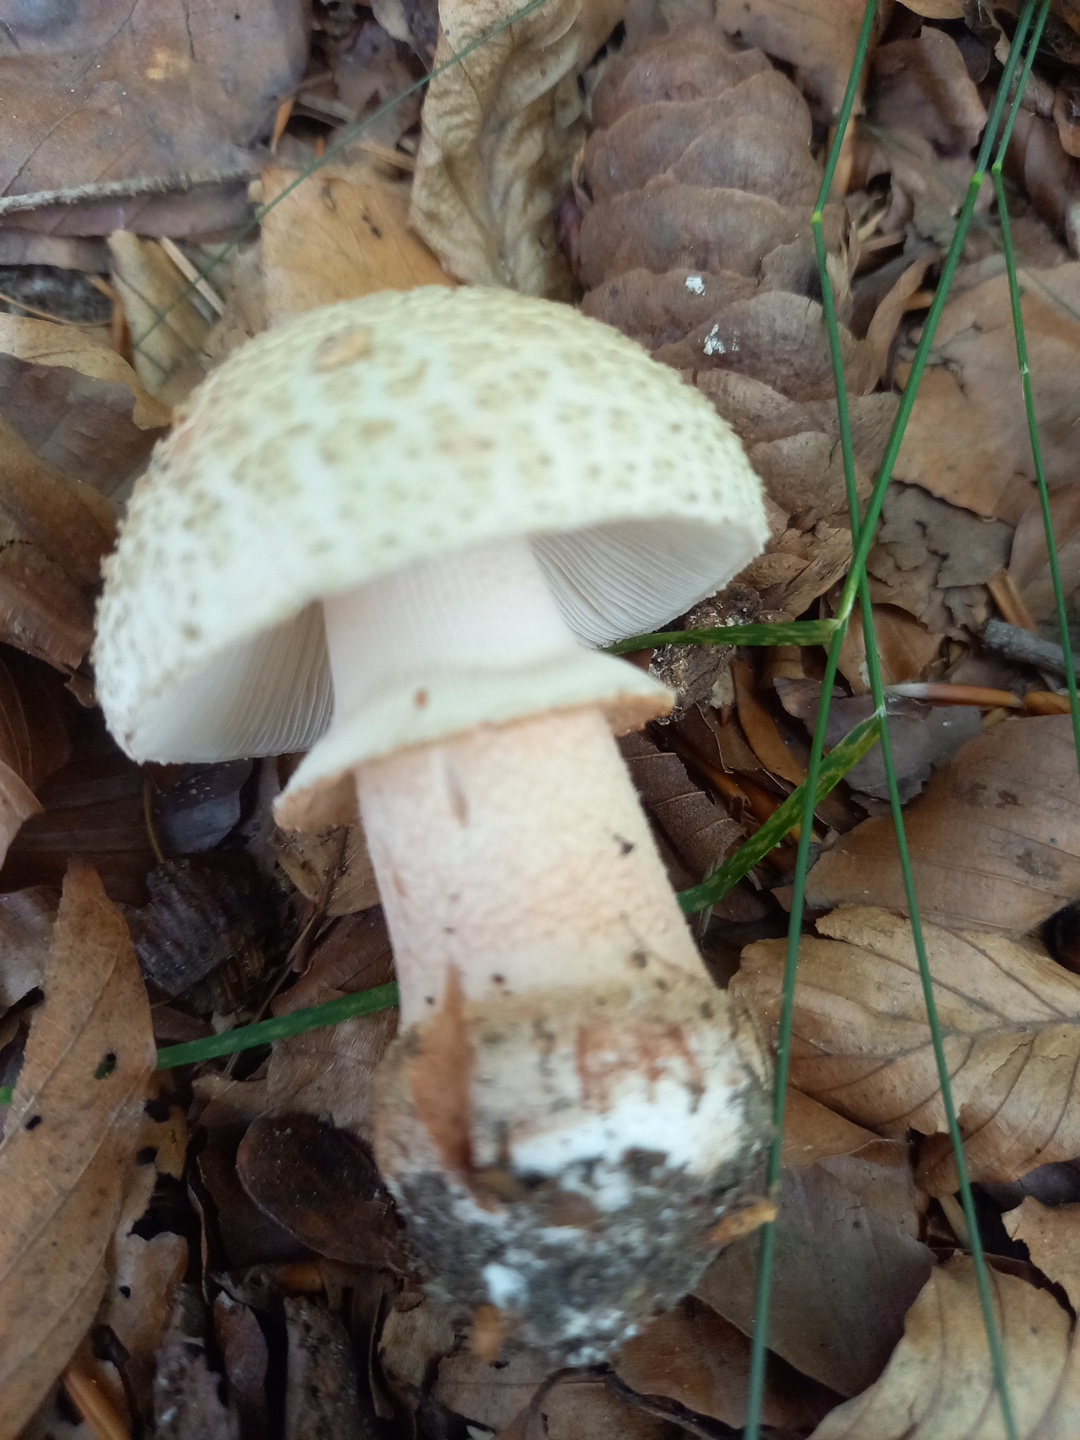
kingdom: Fungi
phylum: Basidiomycota
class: Agaricomycetes
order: Agaricales
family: Amanitaceae
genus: Amanita
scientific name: Amanita rubescens
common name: rødmende fluesvamp
